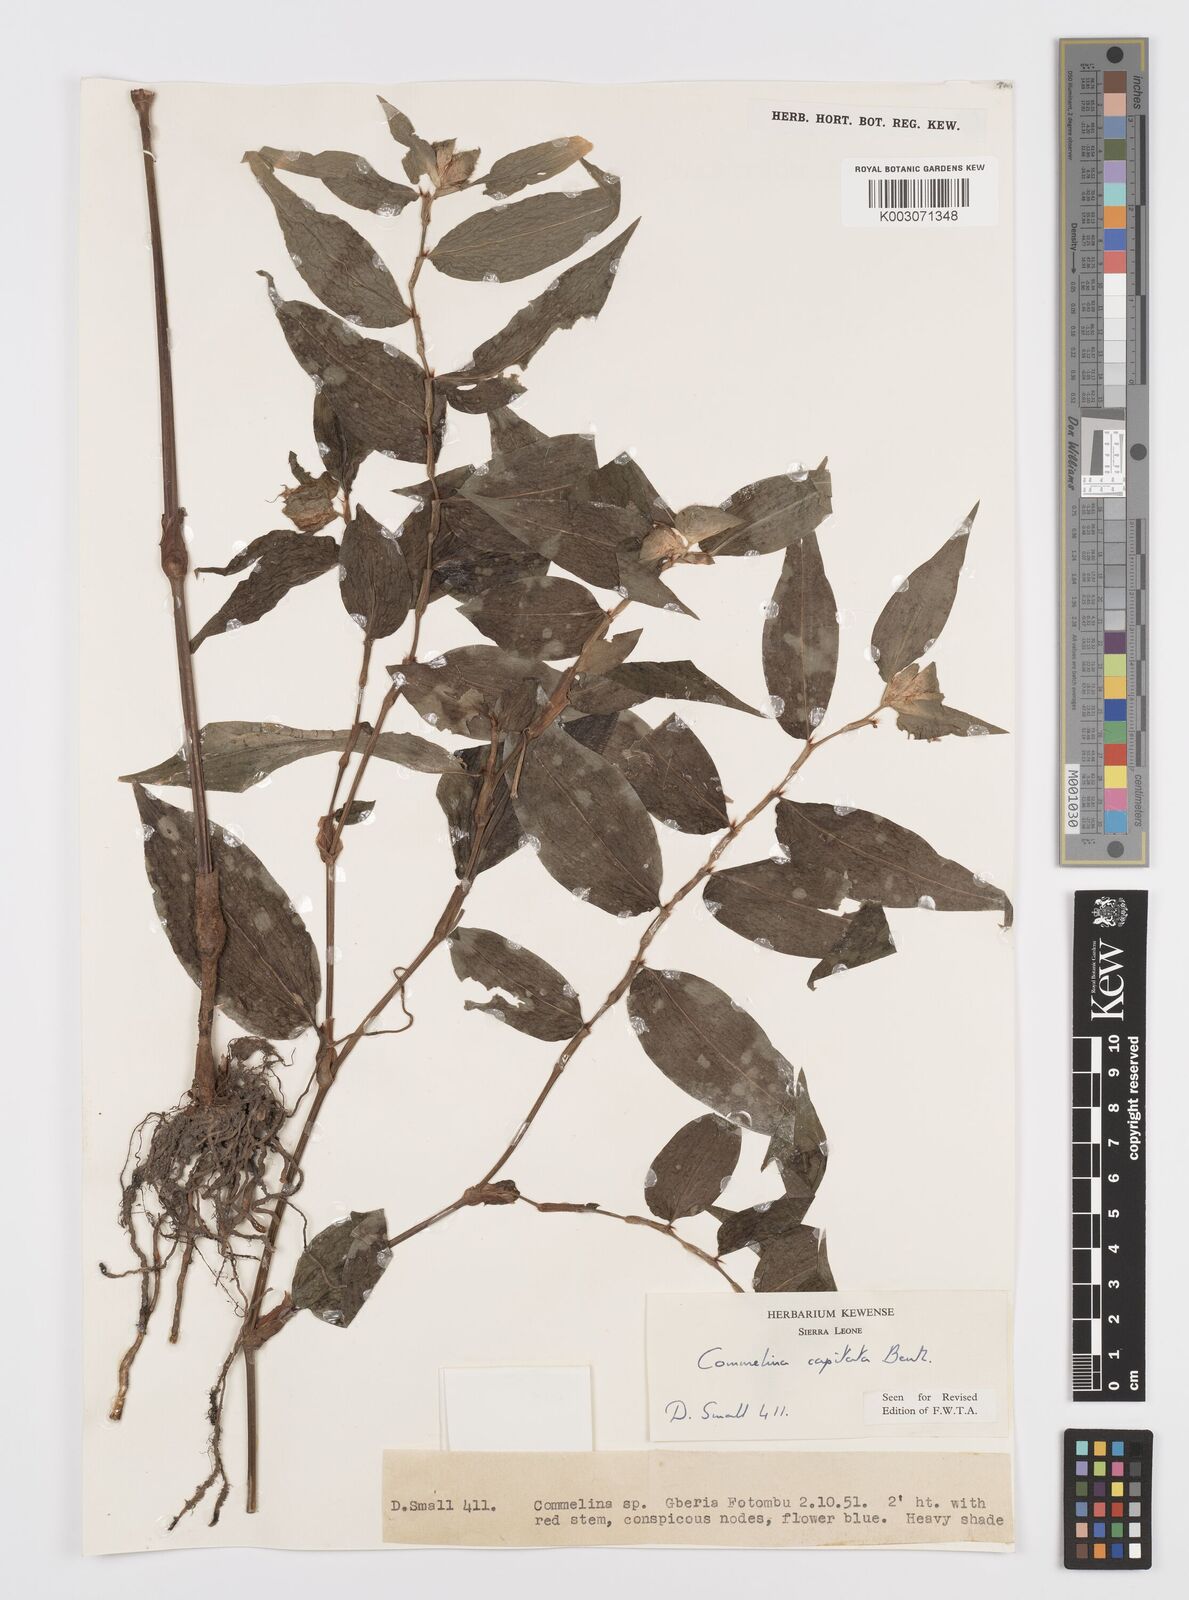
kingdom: Plantae
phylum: Tracheophyta
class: Liliopsida
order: Commelinales
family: Commelinaceae
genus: Commelina
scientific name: Commelina capitata
